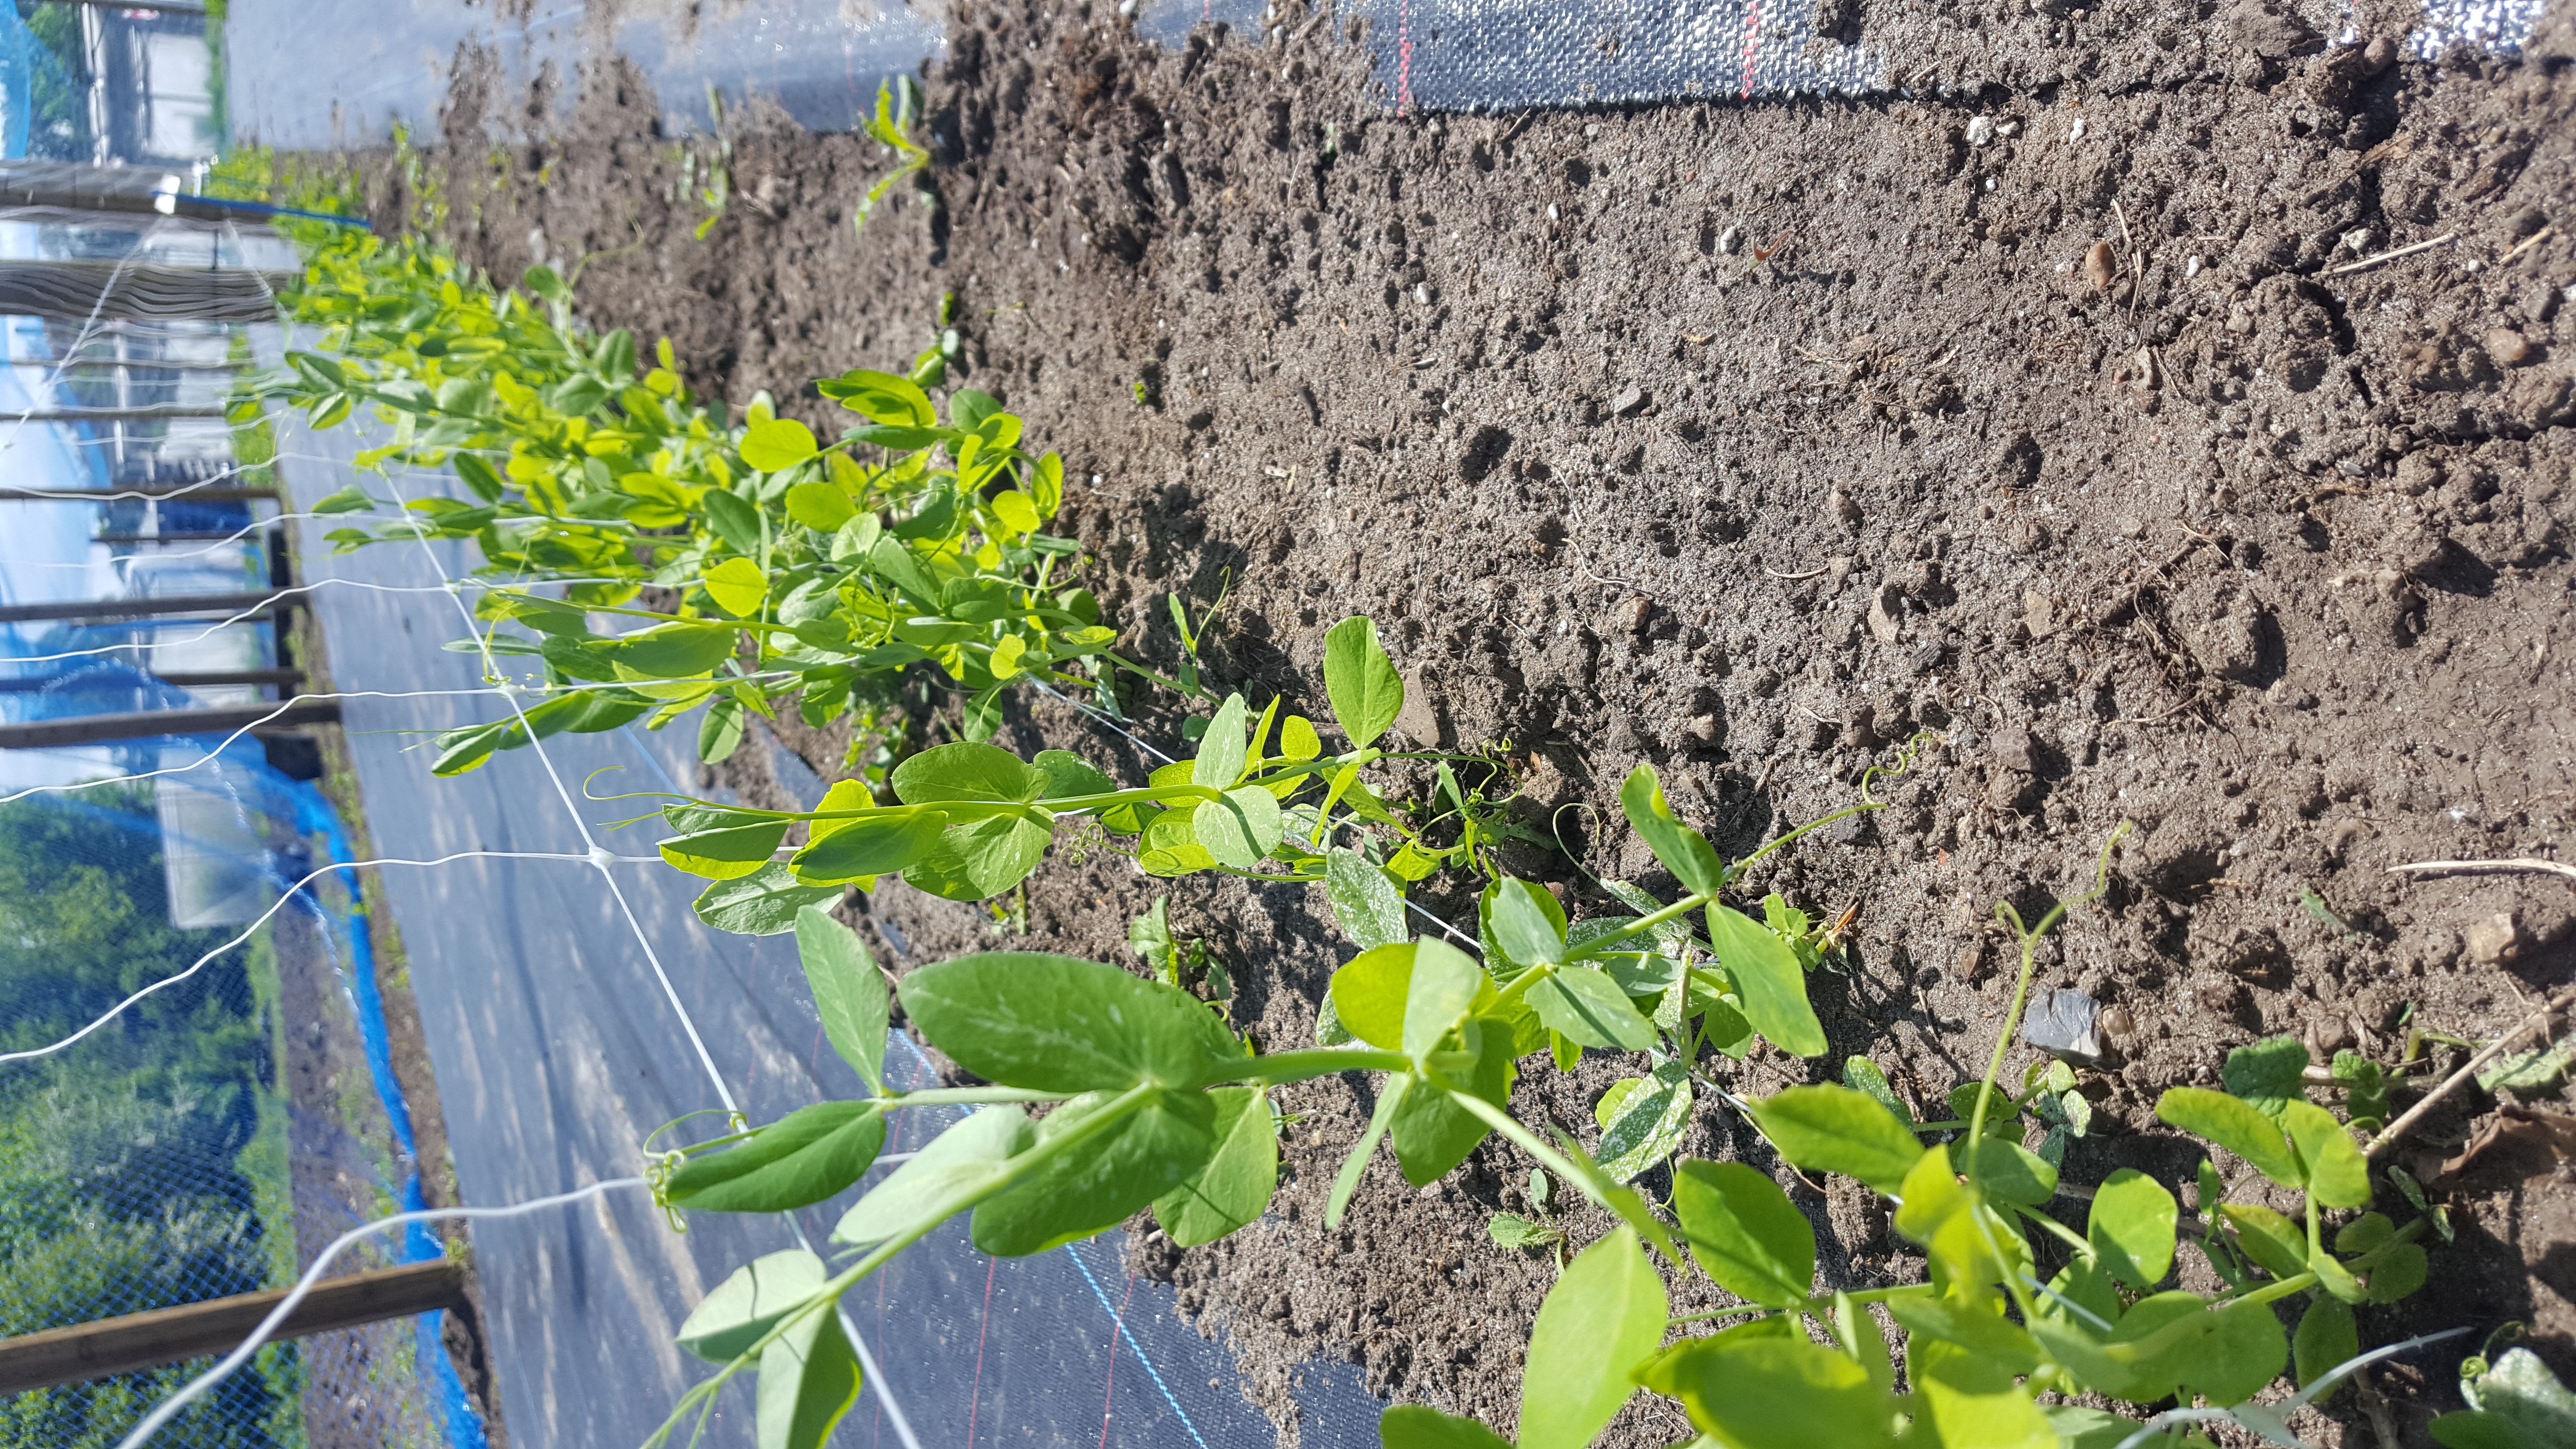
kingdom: Plantae
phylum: Tracheophyta
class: Magnoliopsida
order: Fabales
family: Fabaceae
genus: Lathyrus
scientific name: Lathyrus oleraceus
